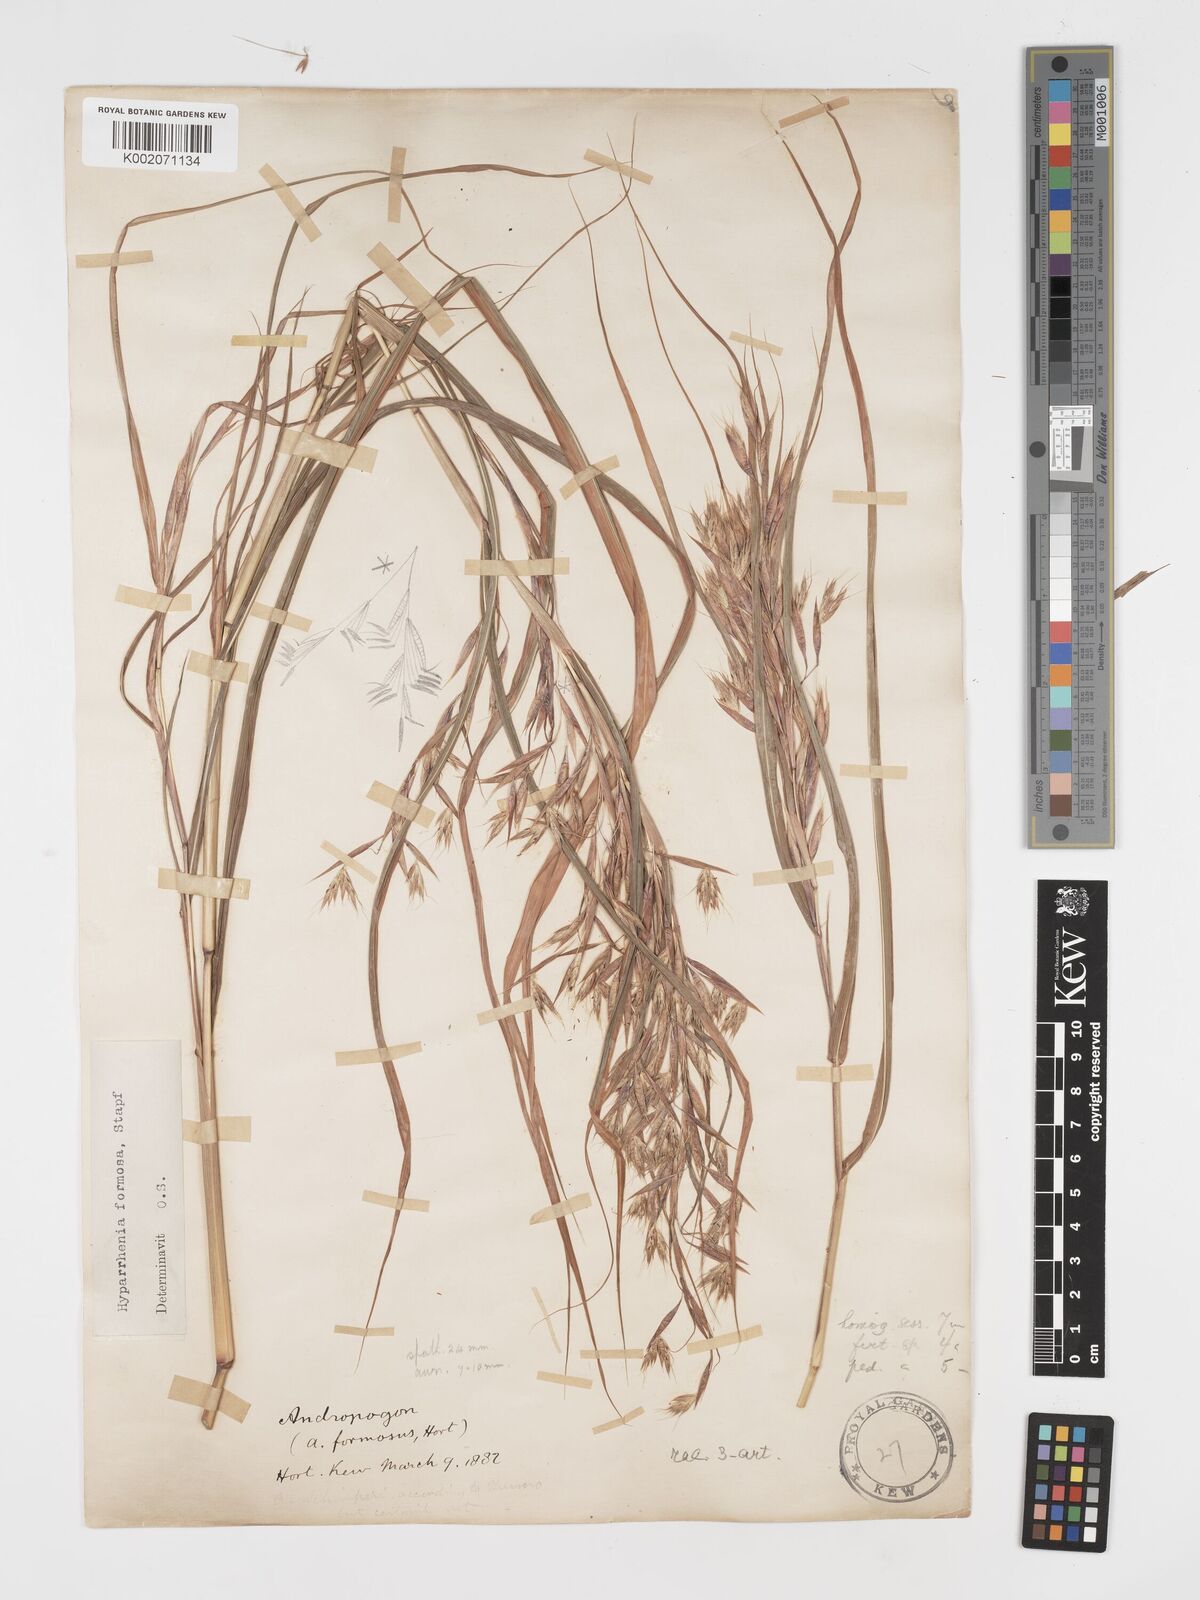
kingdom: Plantae
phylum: Tracheophyta
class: Liliopsida
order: Poales
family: Poaceae
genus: Hyparrhenia
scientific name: Hyparrhenia
